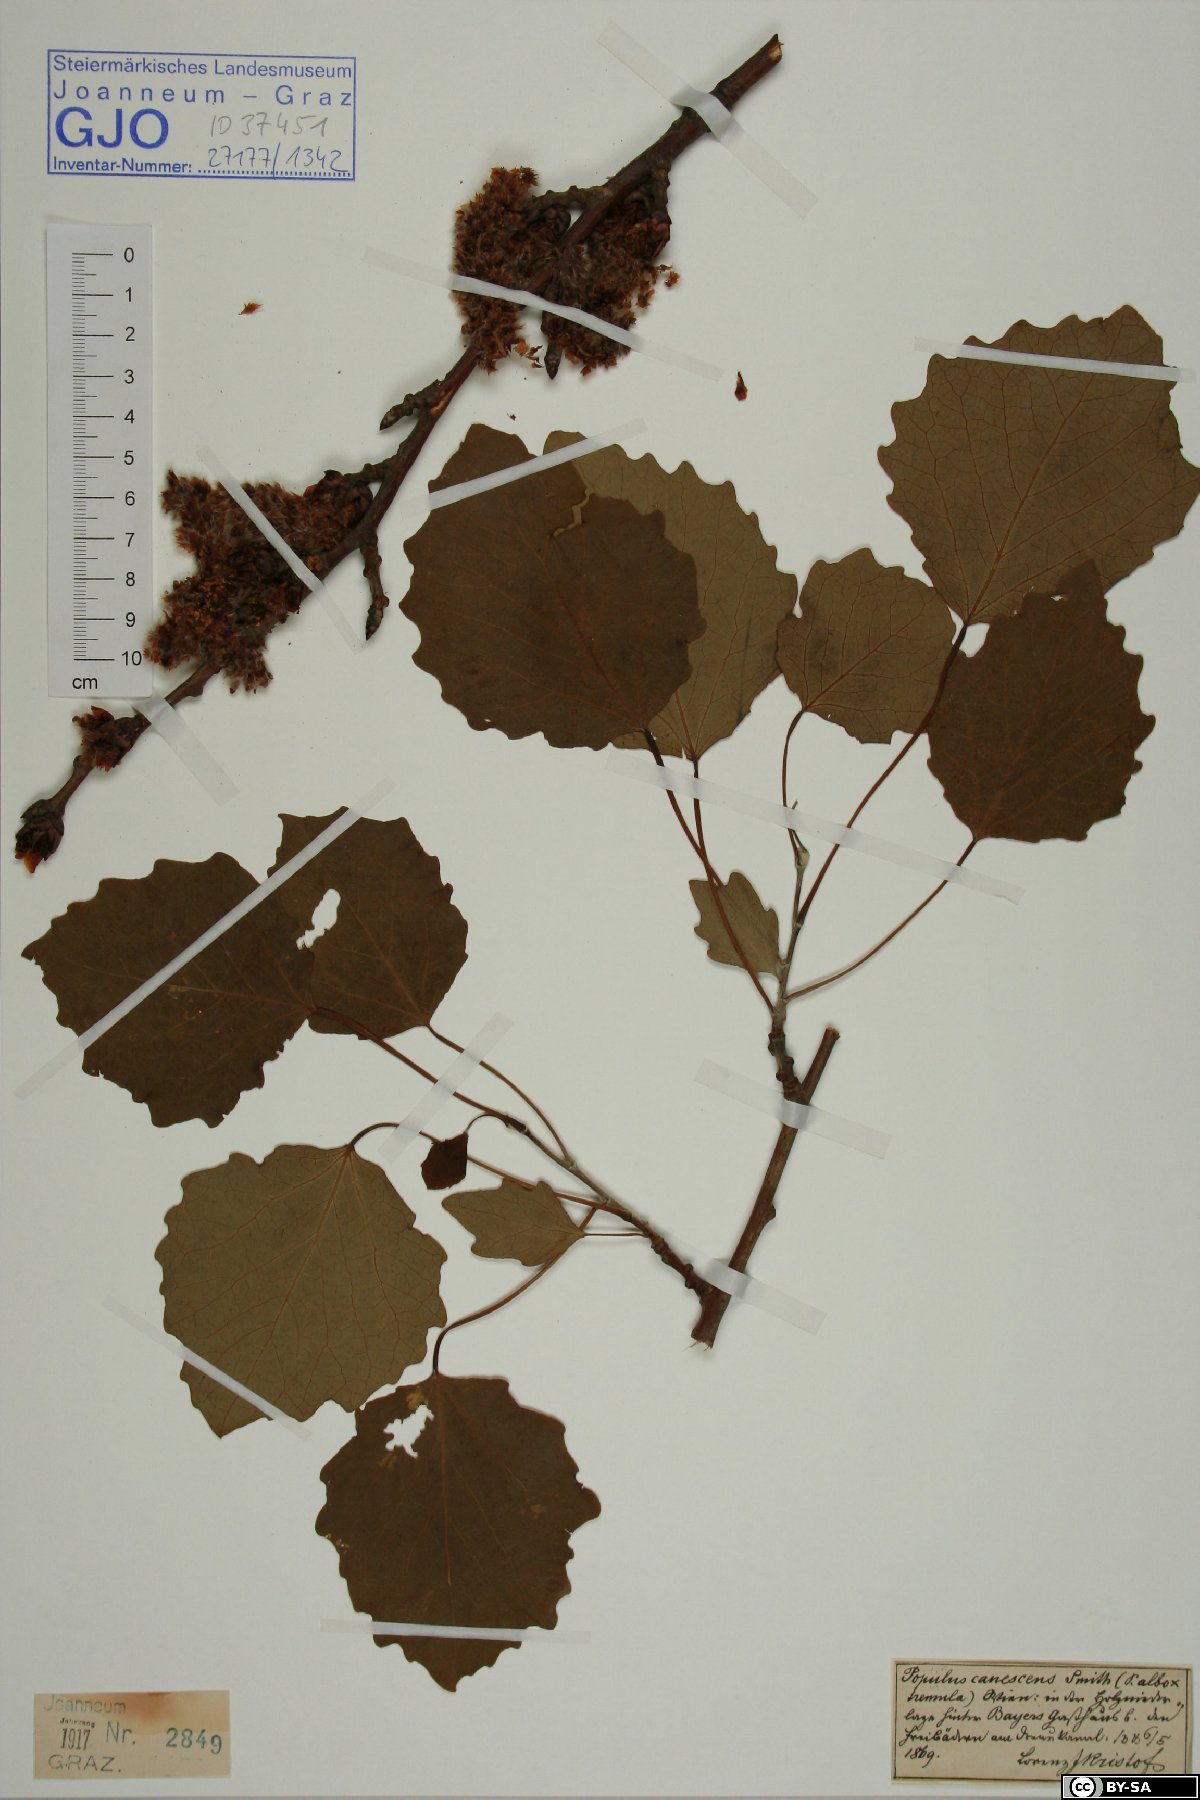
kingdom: Plantae
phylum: Tracheophyta
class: Magnoliopsida
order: Malpighiales
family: Salicaceae
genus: Populus
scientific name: Populus canescens
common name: Gray poplar
